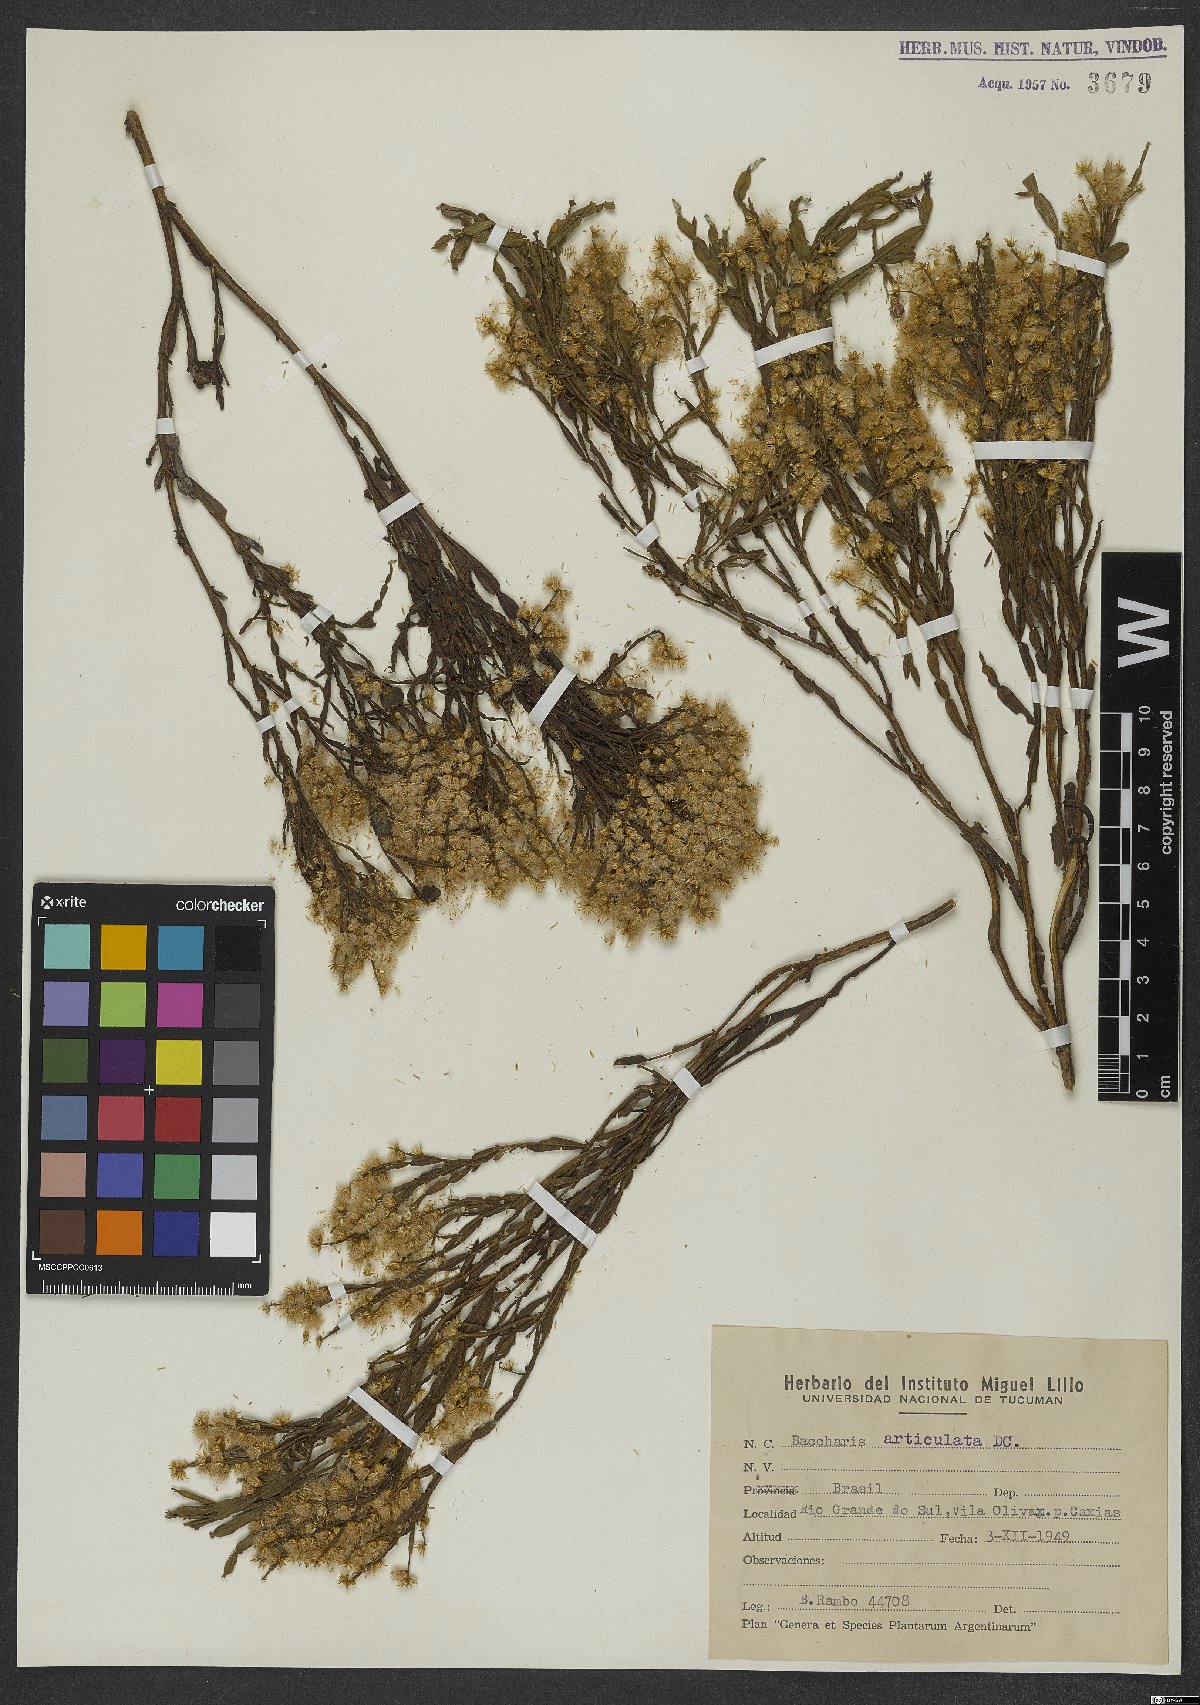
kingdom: Plantae
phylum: Tracheophyta
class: Magnoliopsida
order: Asterales
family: Asteraceae
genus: Baccharis
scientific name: Baccharis articulata
